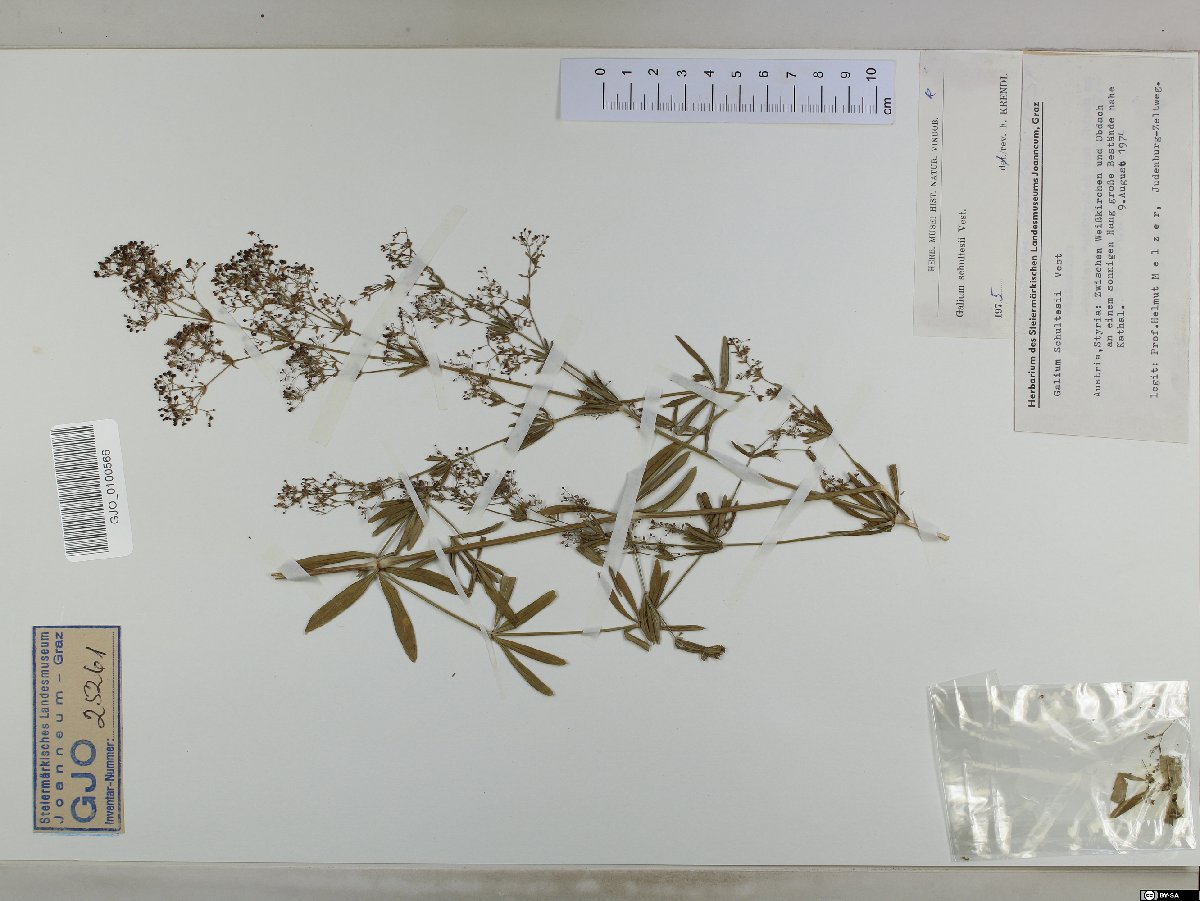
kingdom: Plantae
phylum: Tracheophyta
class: Magnoliopsida
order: Gentianales
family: Rubiaceae
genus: Galium
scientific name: Galium intermedium
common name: Bedstraw
